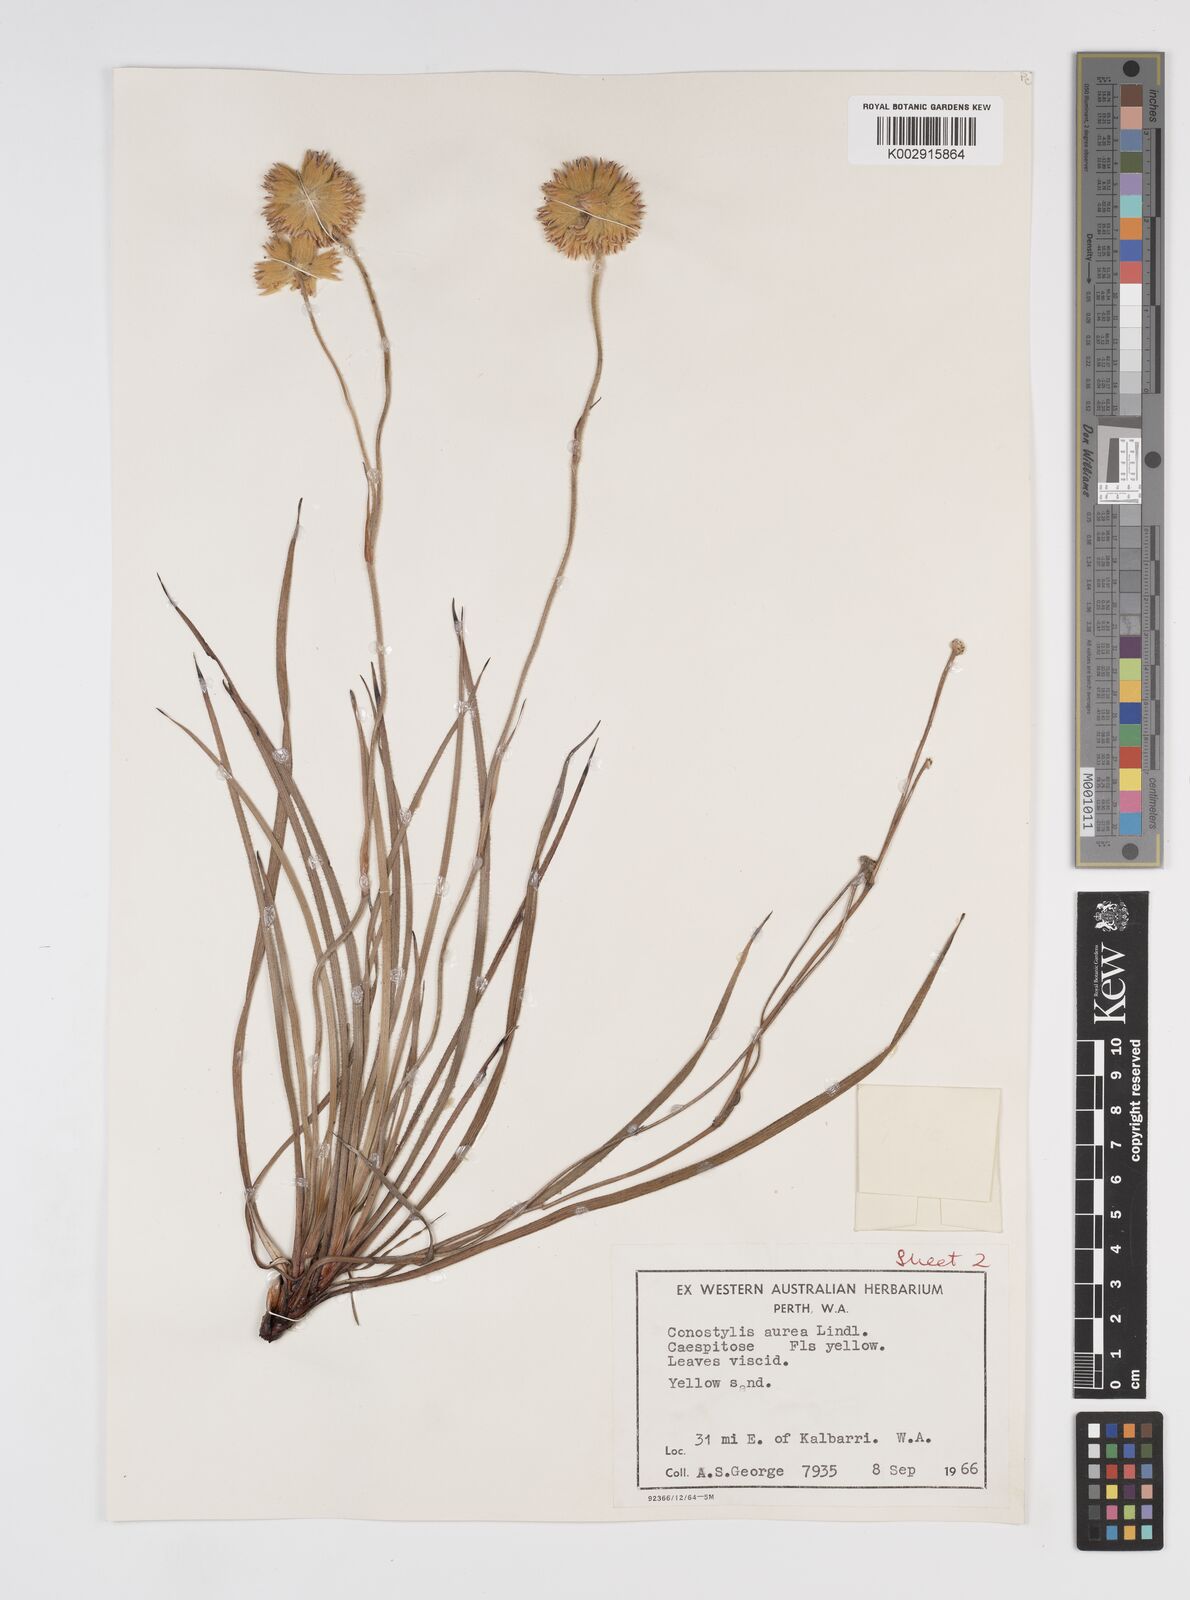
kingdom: Plantae
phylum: Tracheophyta
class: Liliopsida
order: Commelinales
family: Haemodoraceae
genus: Conostylis
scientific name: Conostylis aurea
